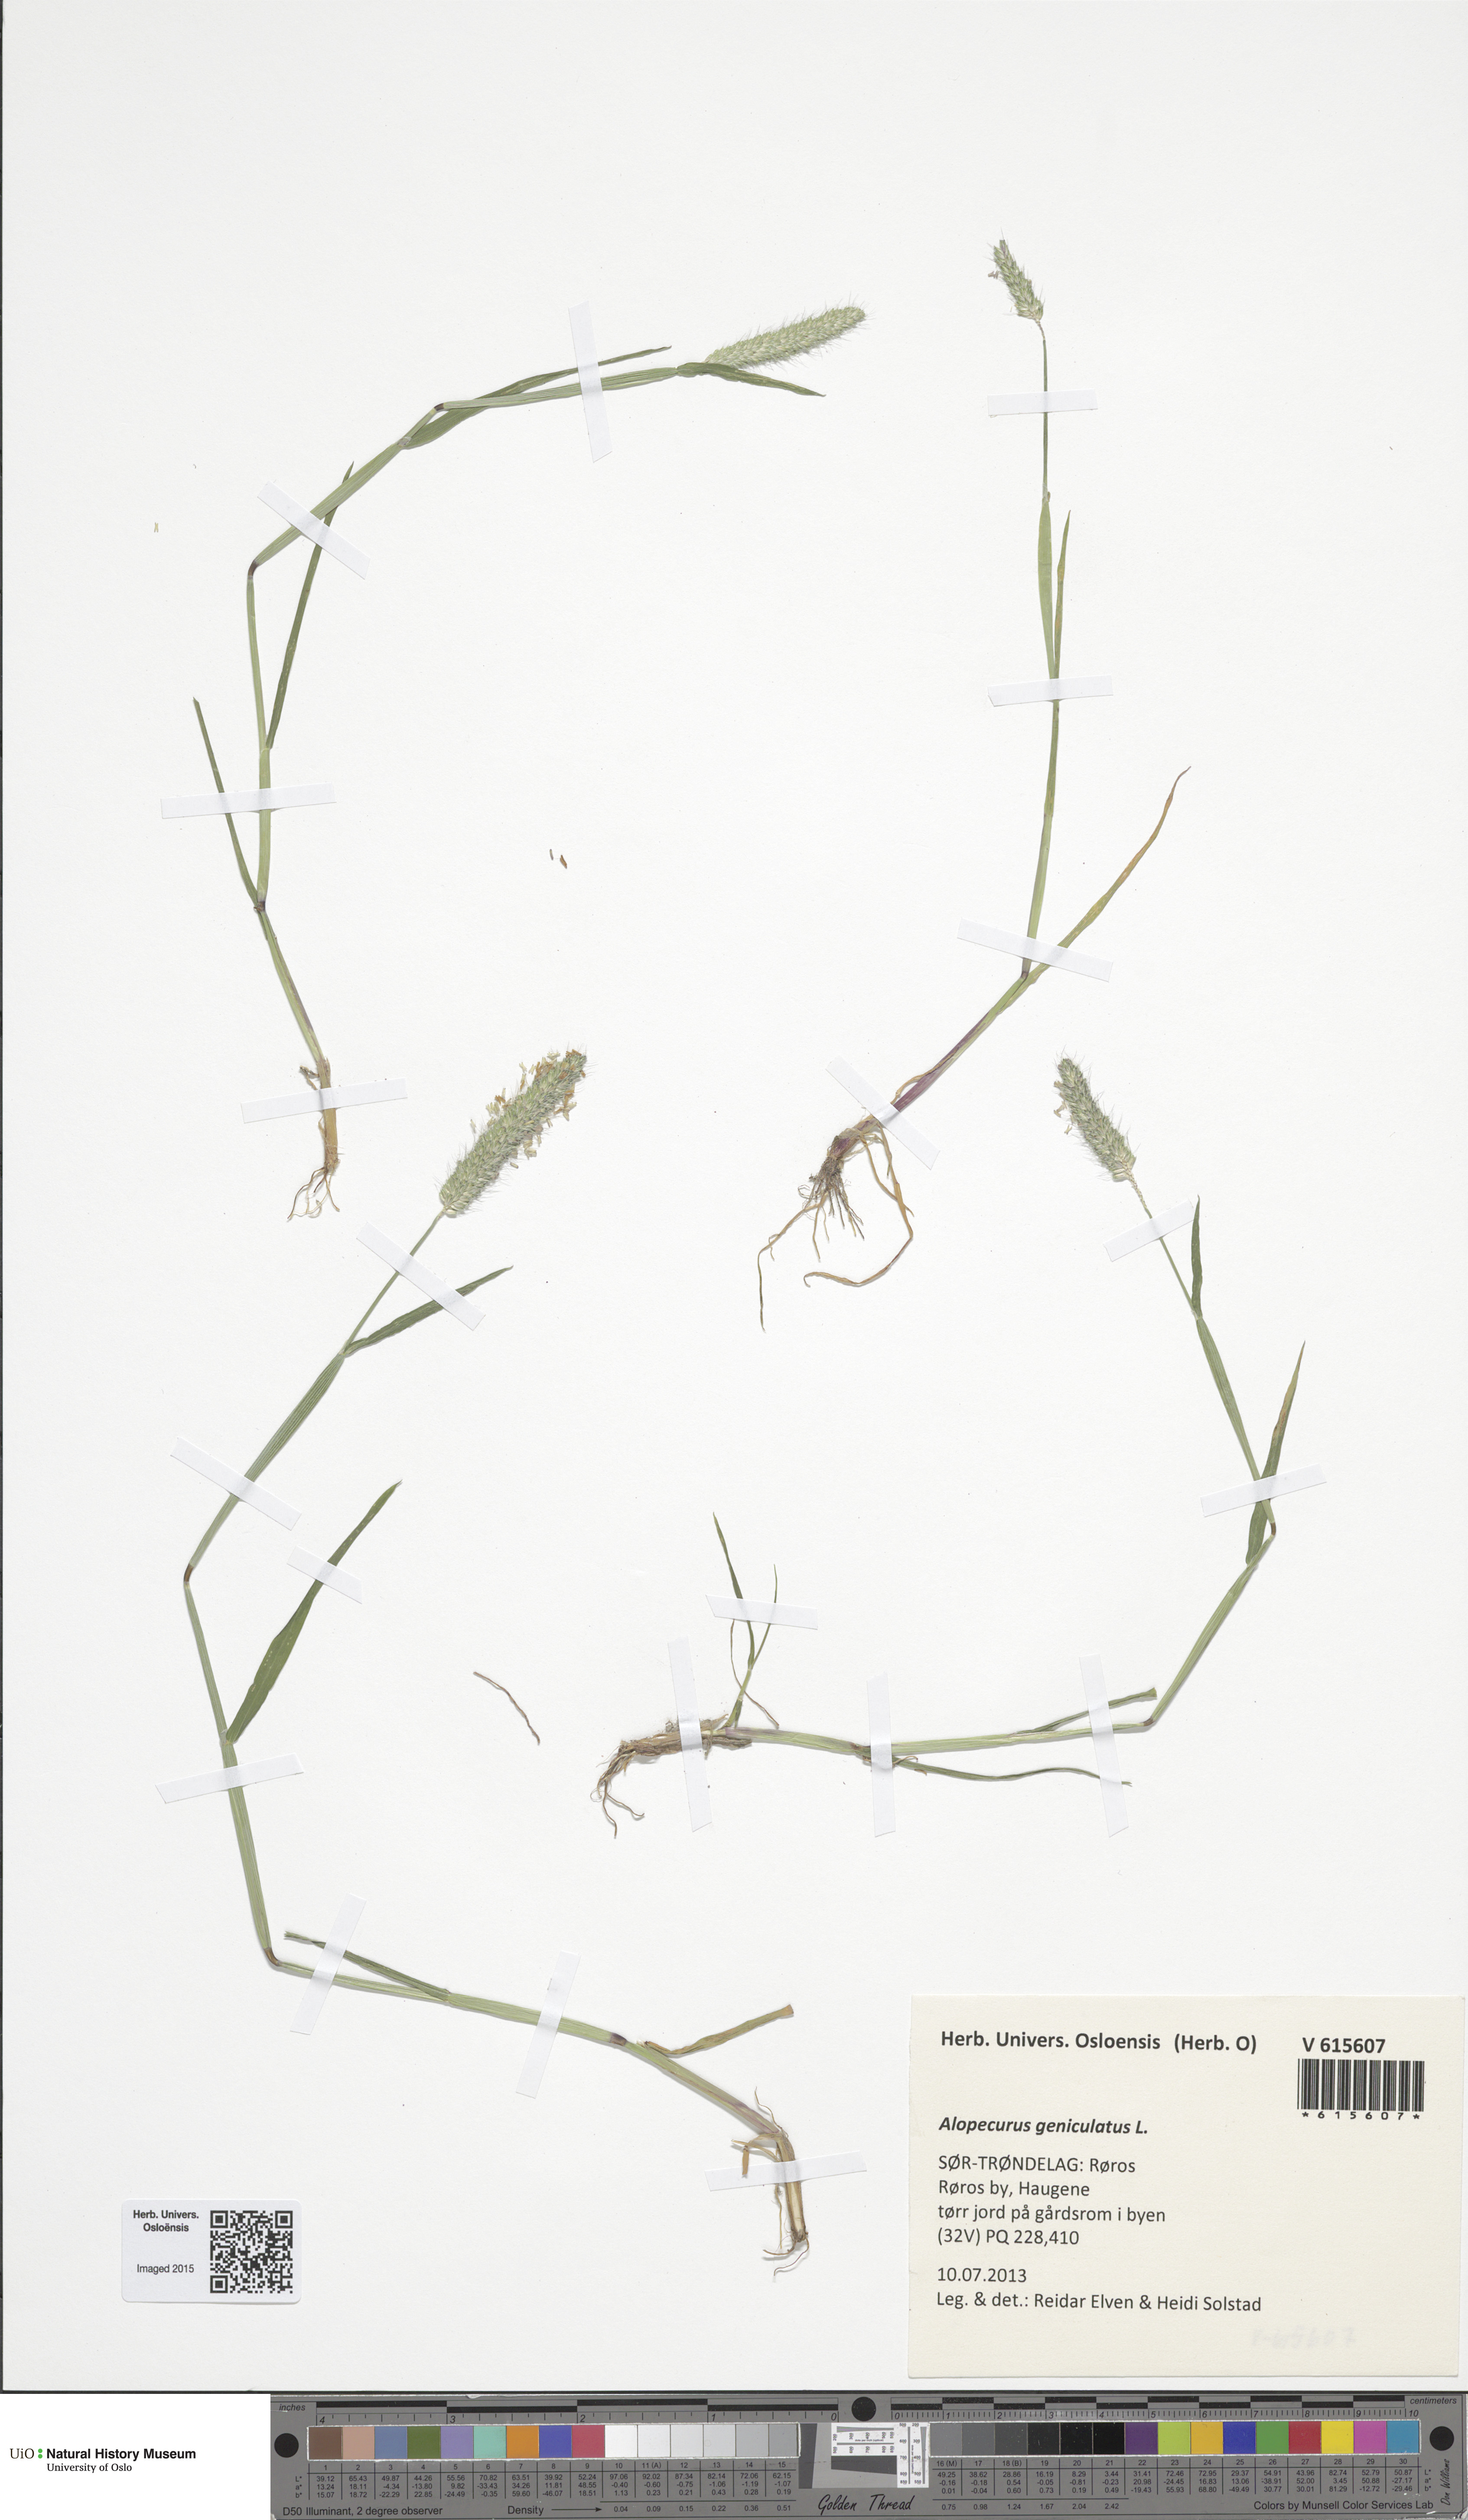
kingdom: Plantae
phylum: Tracheophyta
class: Liliopsida
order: Poales
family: Poaceae
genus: Alopecurus
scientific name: Alopecurus geniculatus
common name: Water foxtail
